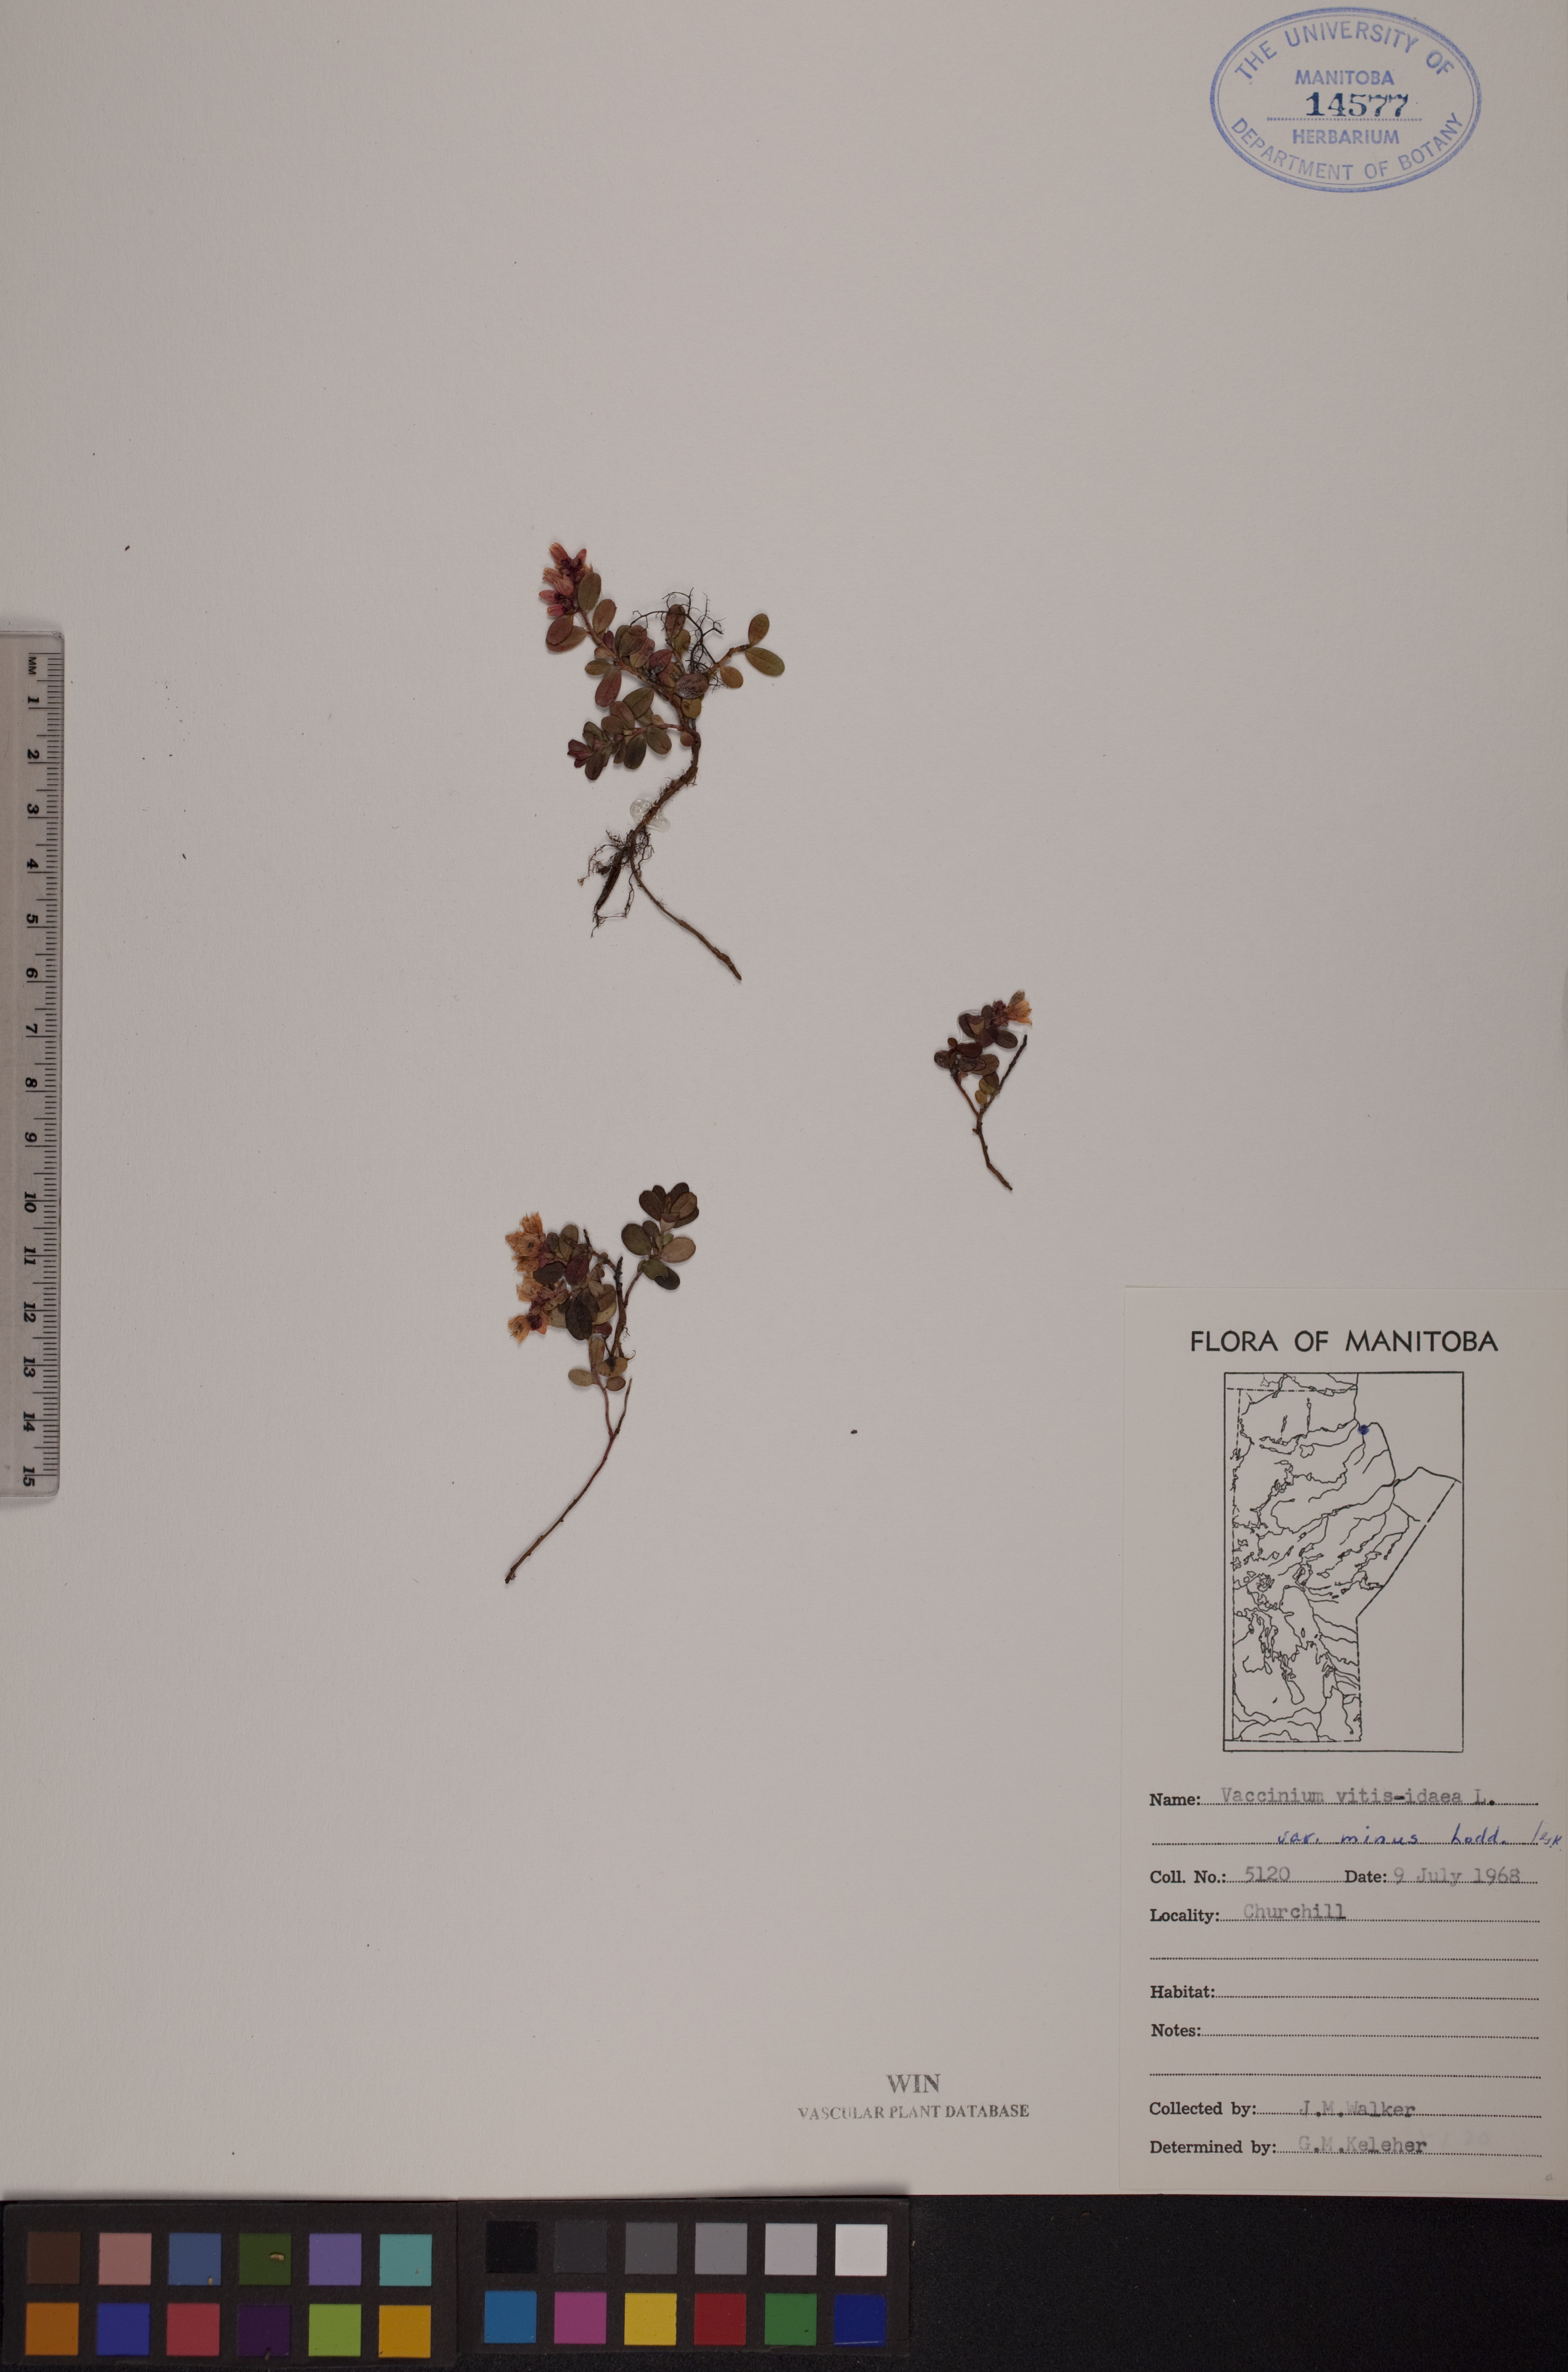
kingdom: Plantae
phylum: Tracheophyta
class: Magnoliopsida
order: Ericales
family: Ericaceae
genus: Vaccinium
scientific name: Vaccinium vitis-idaea
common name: Cowberry
